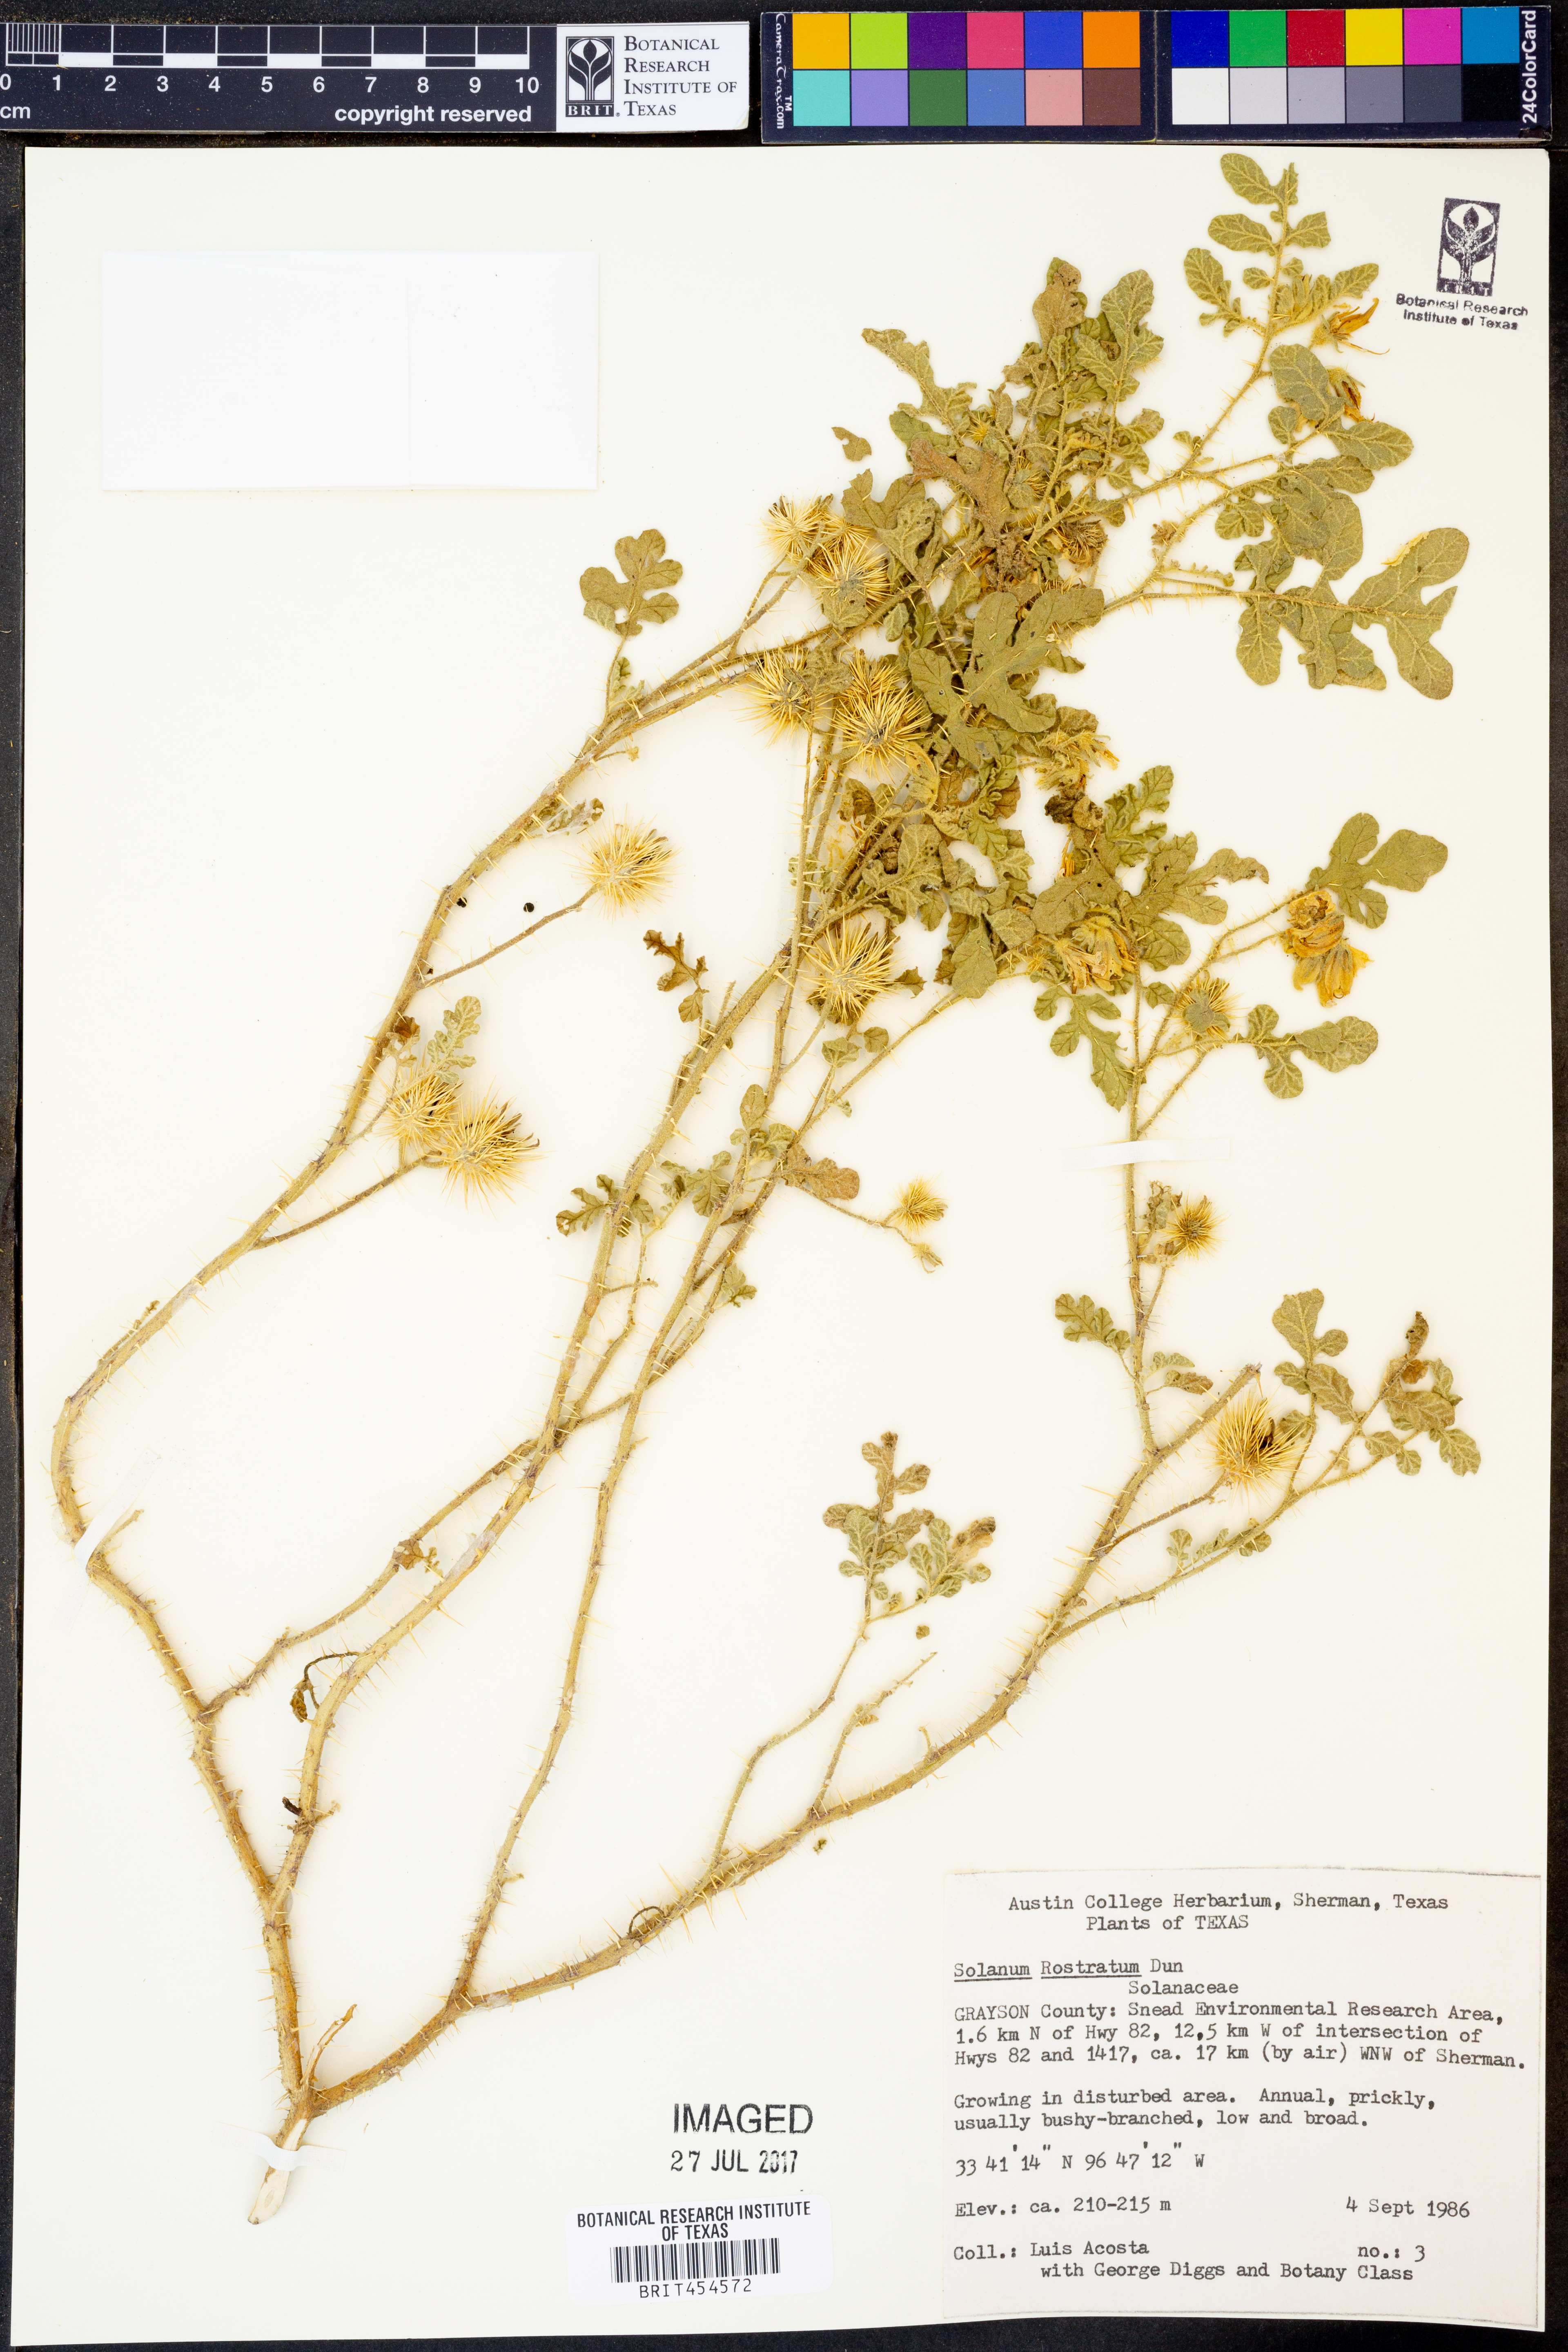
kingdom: Plantae
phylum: Tracheophyta
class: Magnoliopsida
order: Solanales
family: Solanaceae
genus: Solanum
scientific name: Solanum angustifolium
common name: Buffalobur nightshade
